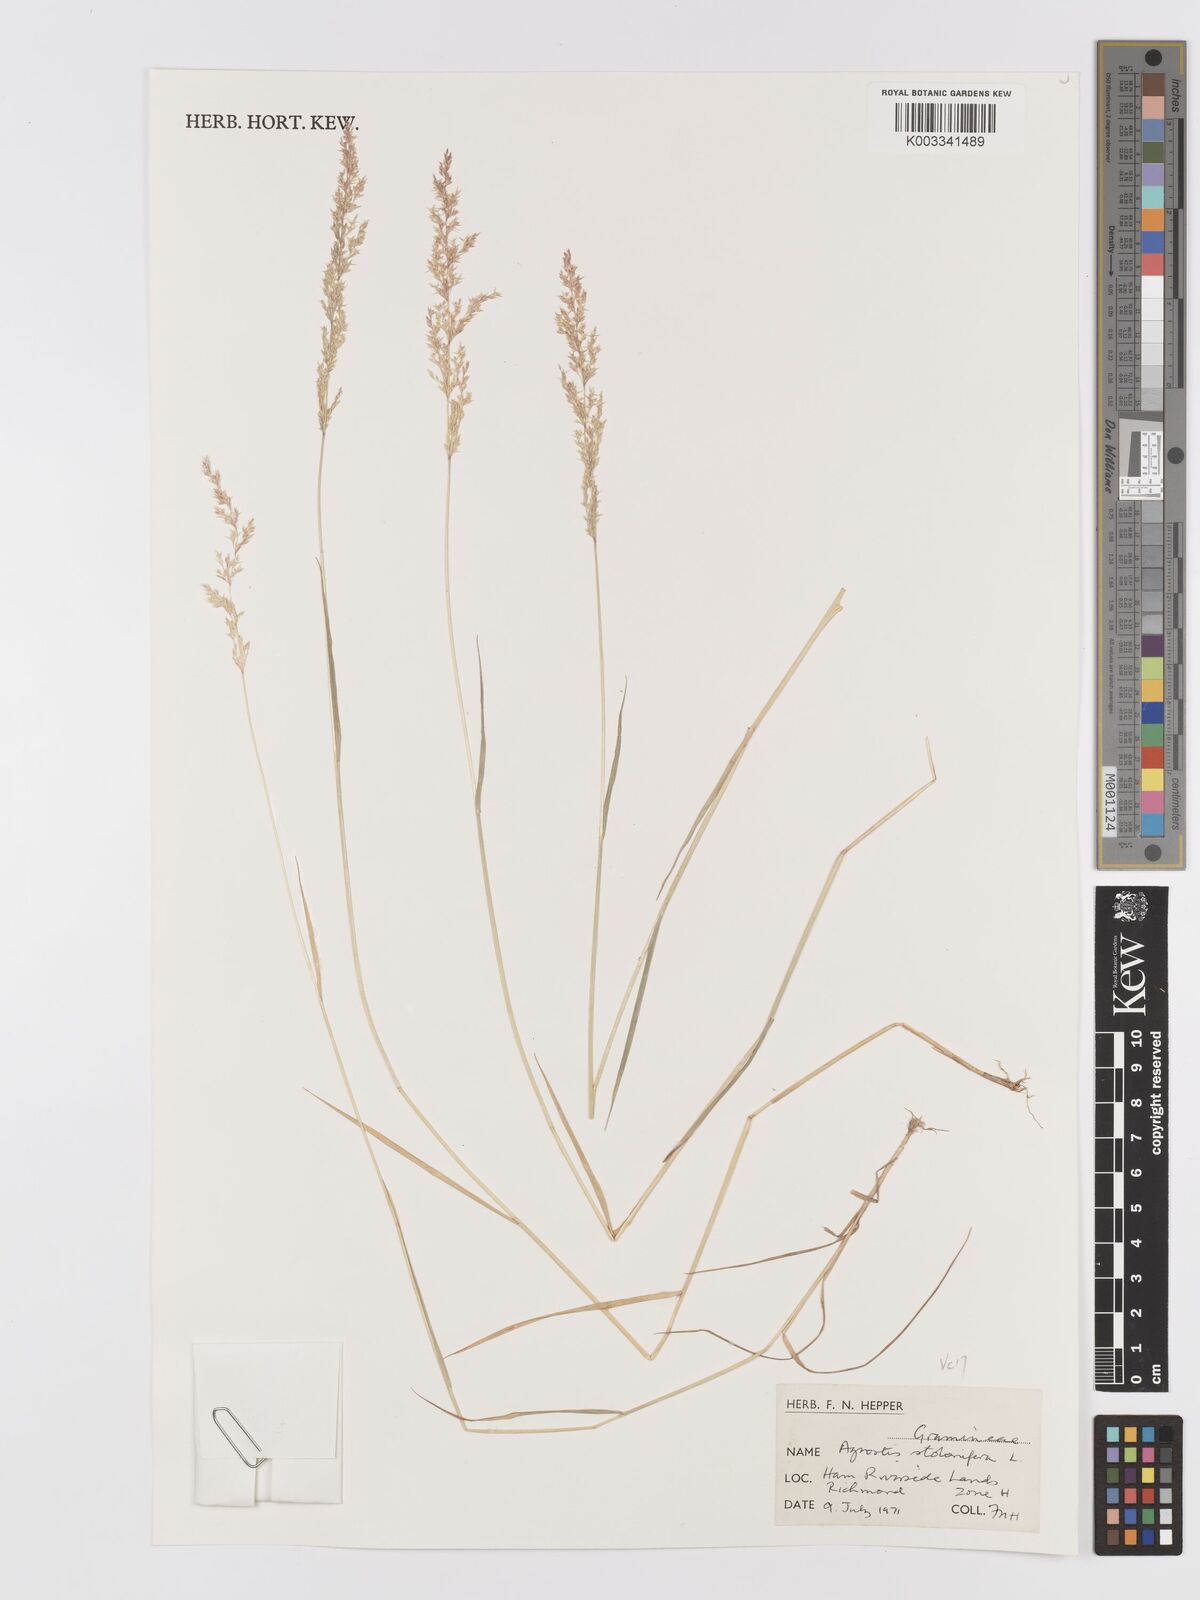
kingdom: Plantae
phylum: Tracheophyta
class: Liliopsida
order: Poales
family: Poaceae
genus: Agrostis
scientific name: Agrostis stolonifera
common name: Creeping bentgrass
